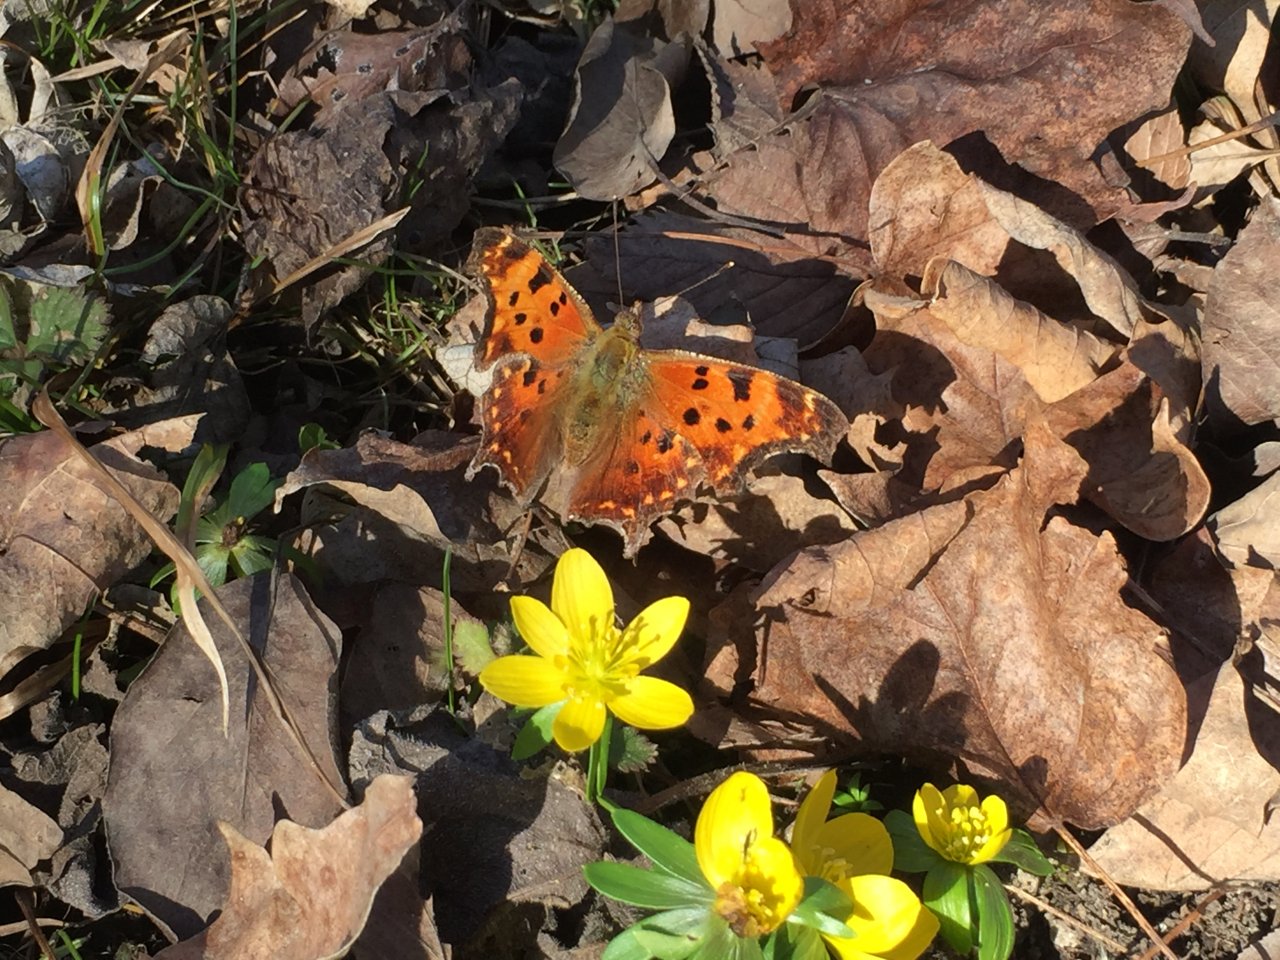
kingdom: Animalia
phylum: Arthropoda
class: Insecta
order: Lepidoptera
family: Nymphalidae
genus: Polygonia
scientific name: Polygonia comma
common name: Eastern Comma
